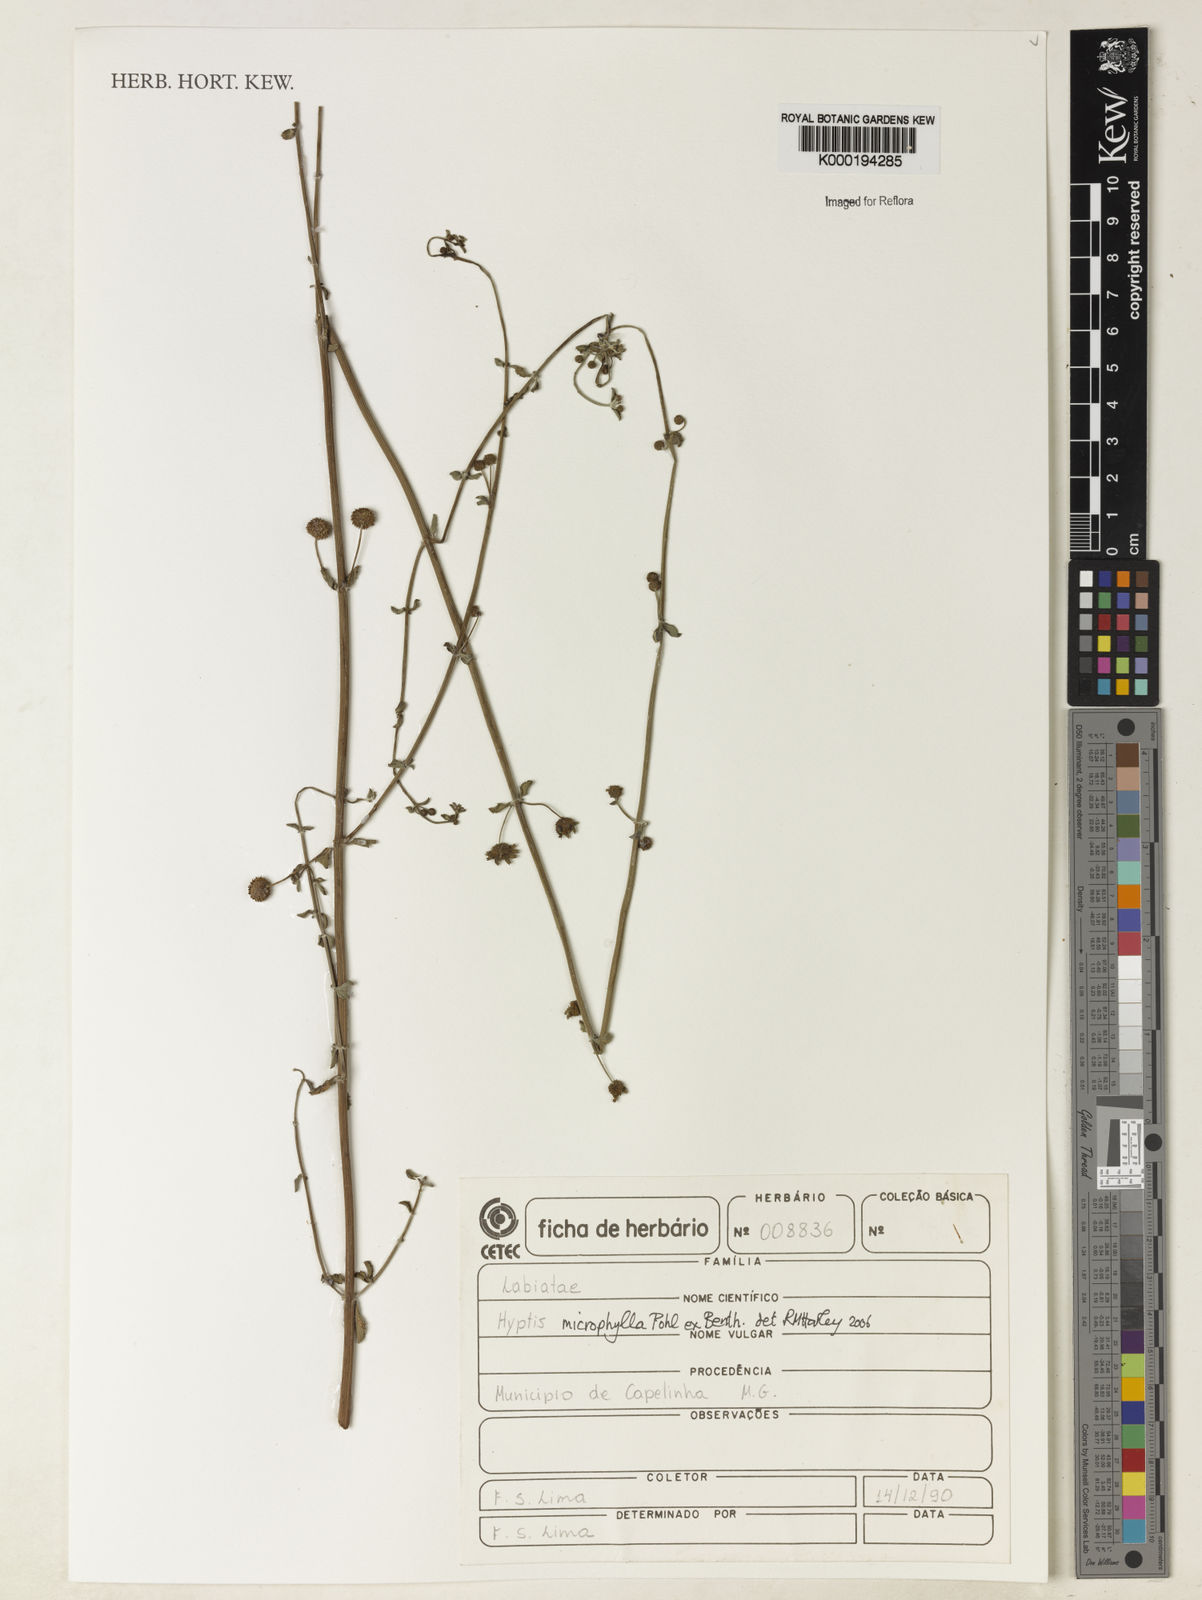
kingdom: Plantae
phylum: Tracheophyta
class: Magnoliopsida
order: Lamiales
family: Lamiaceae
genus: Hyptis
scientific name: Hyptis microphylla
